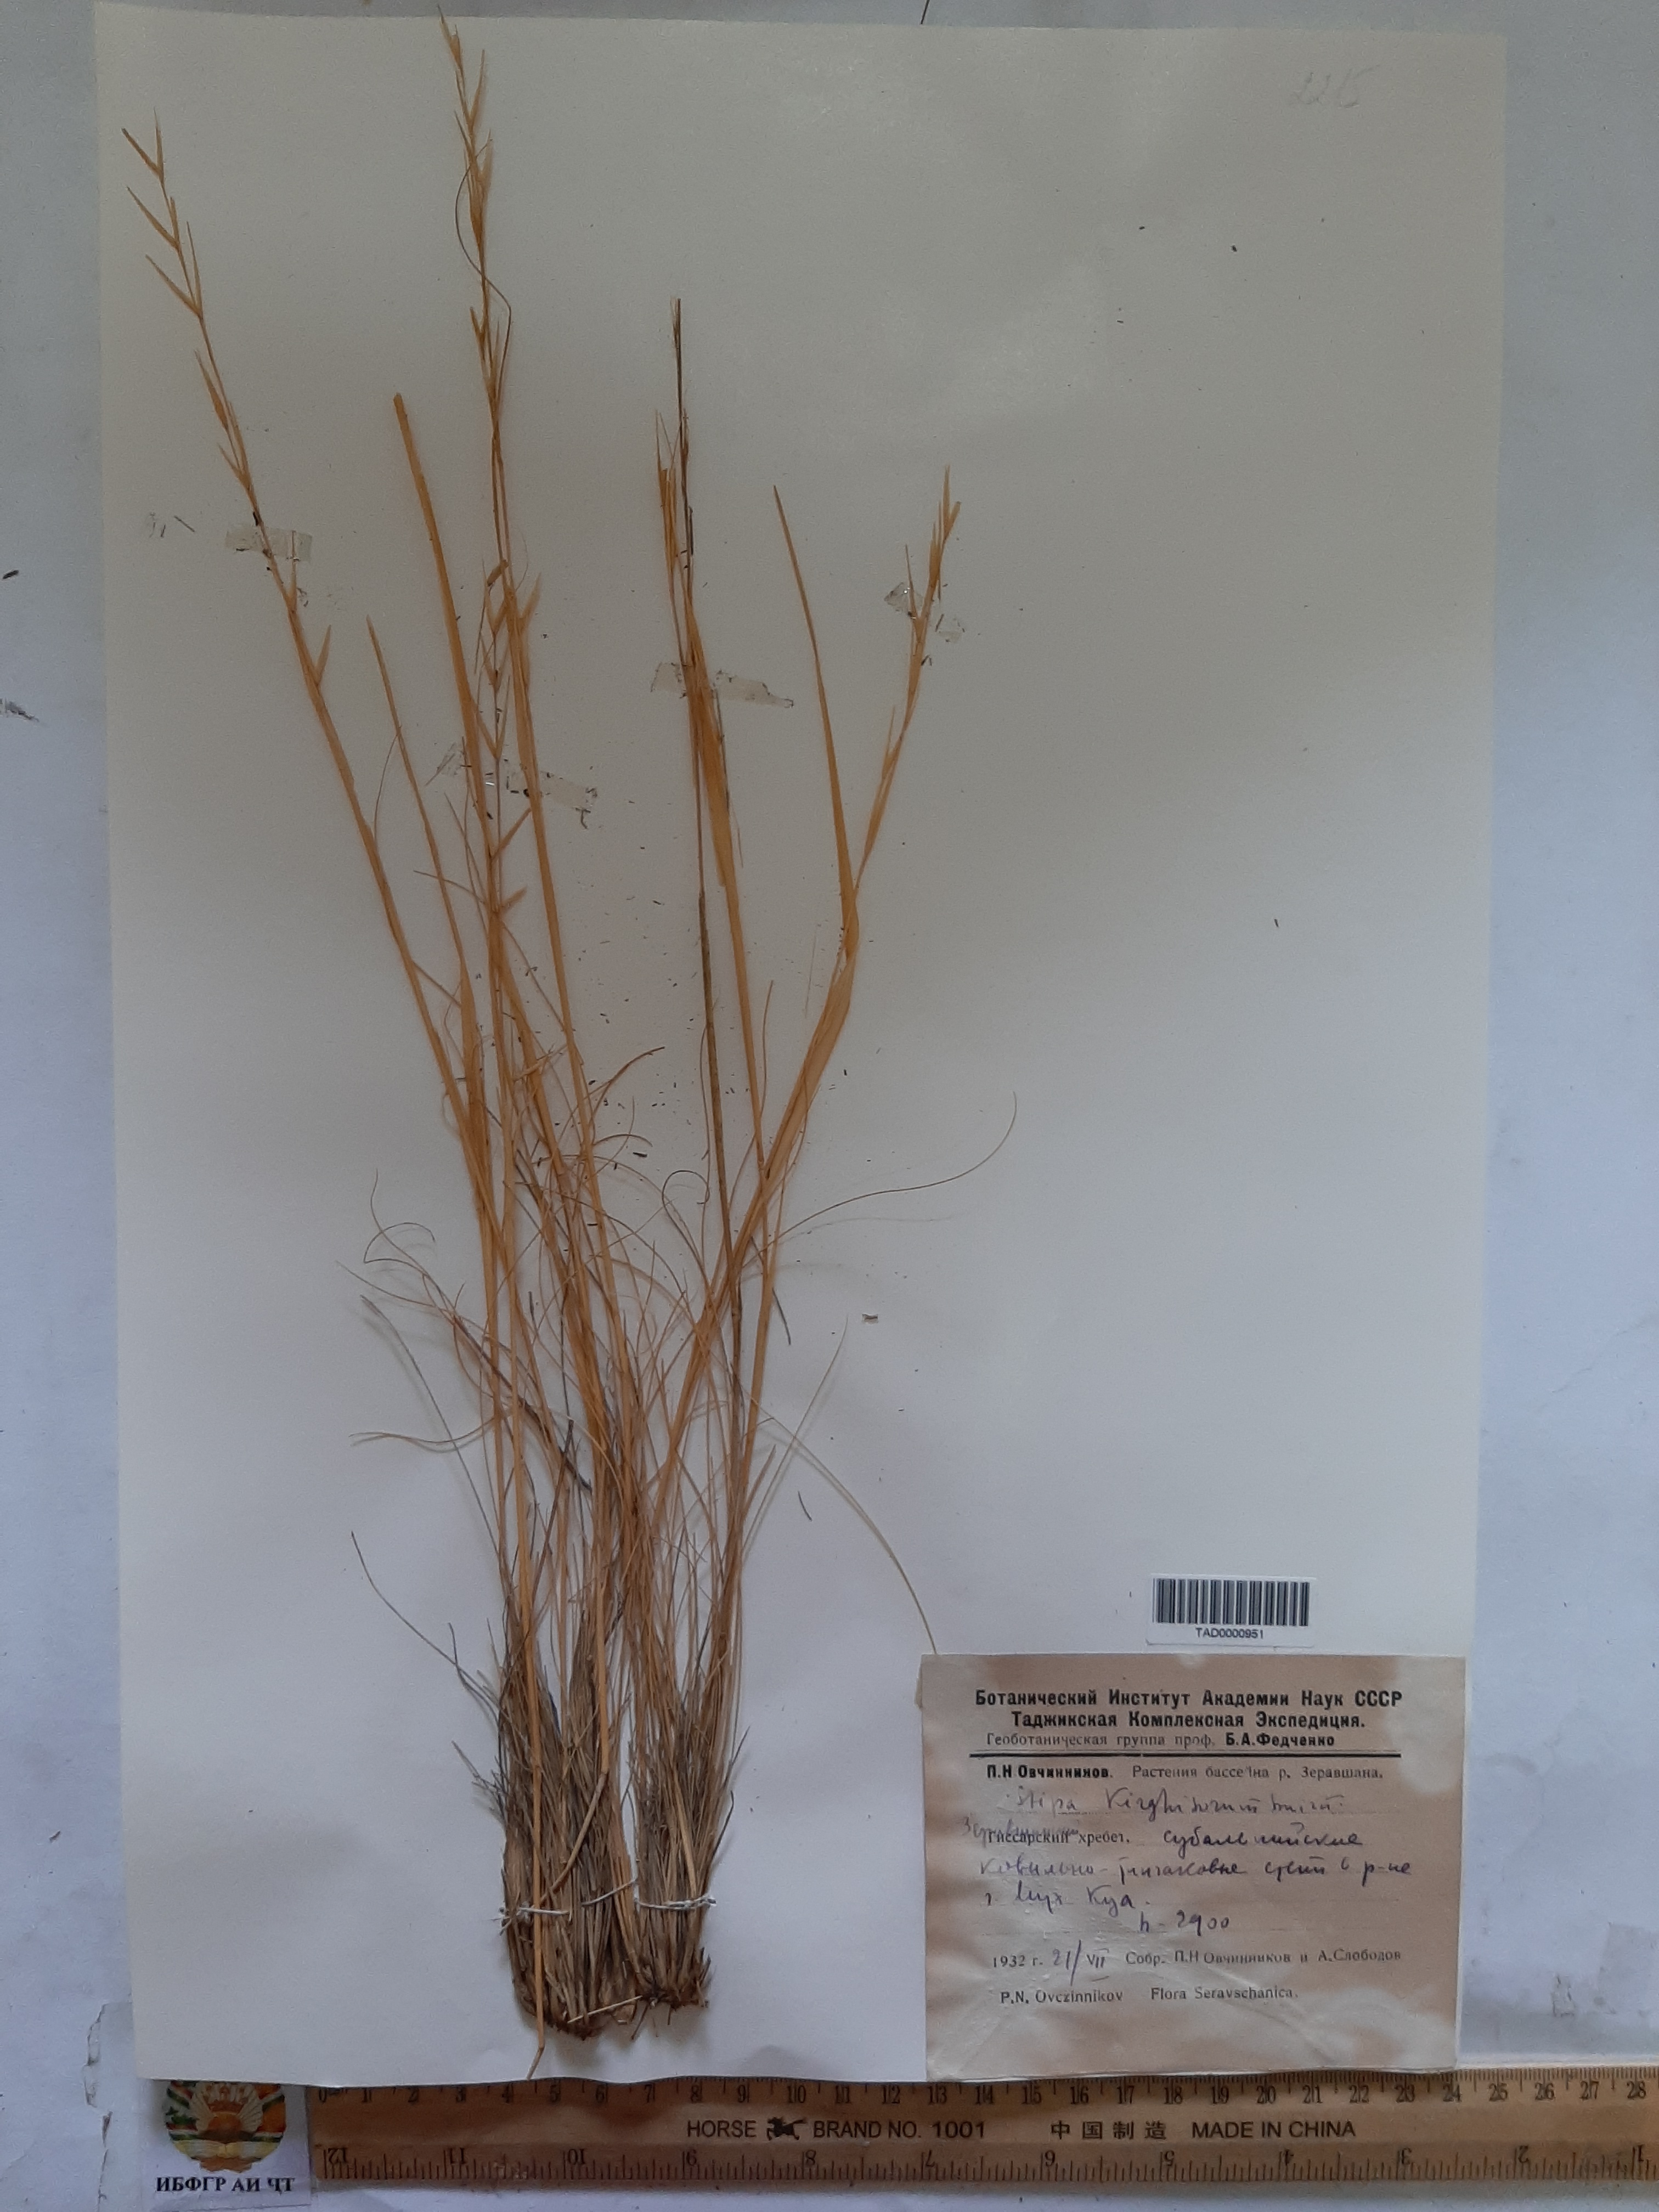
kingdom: Plantae
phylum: Tracheophyta
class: Liliopsida
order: Poales
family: Poaceae
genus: Stipa
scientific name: Stipa kirghisorum
